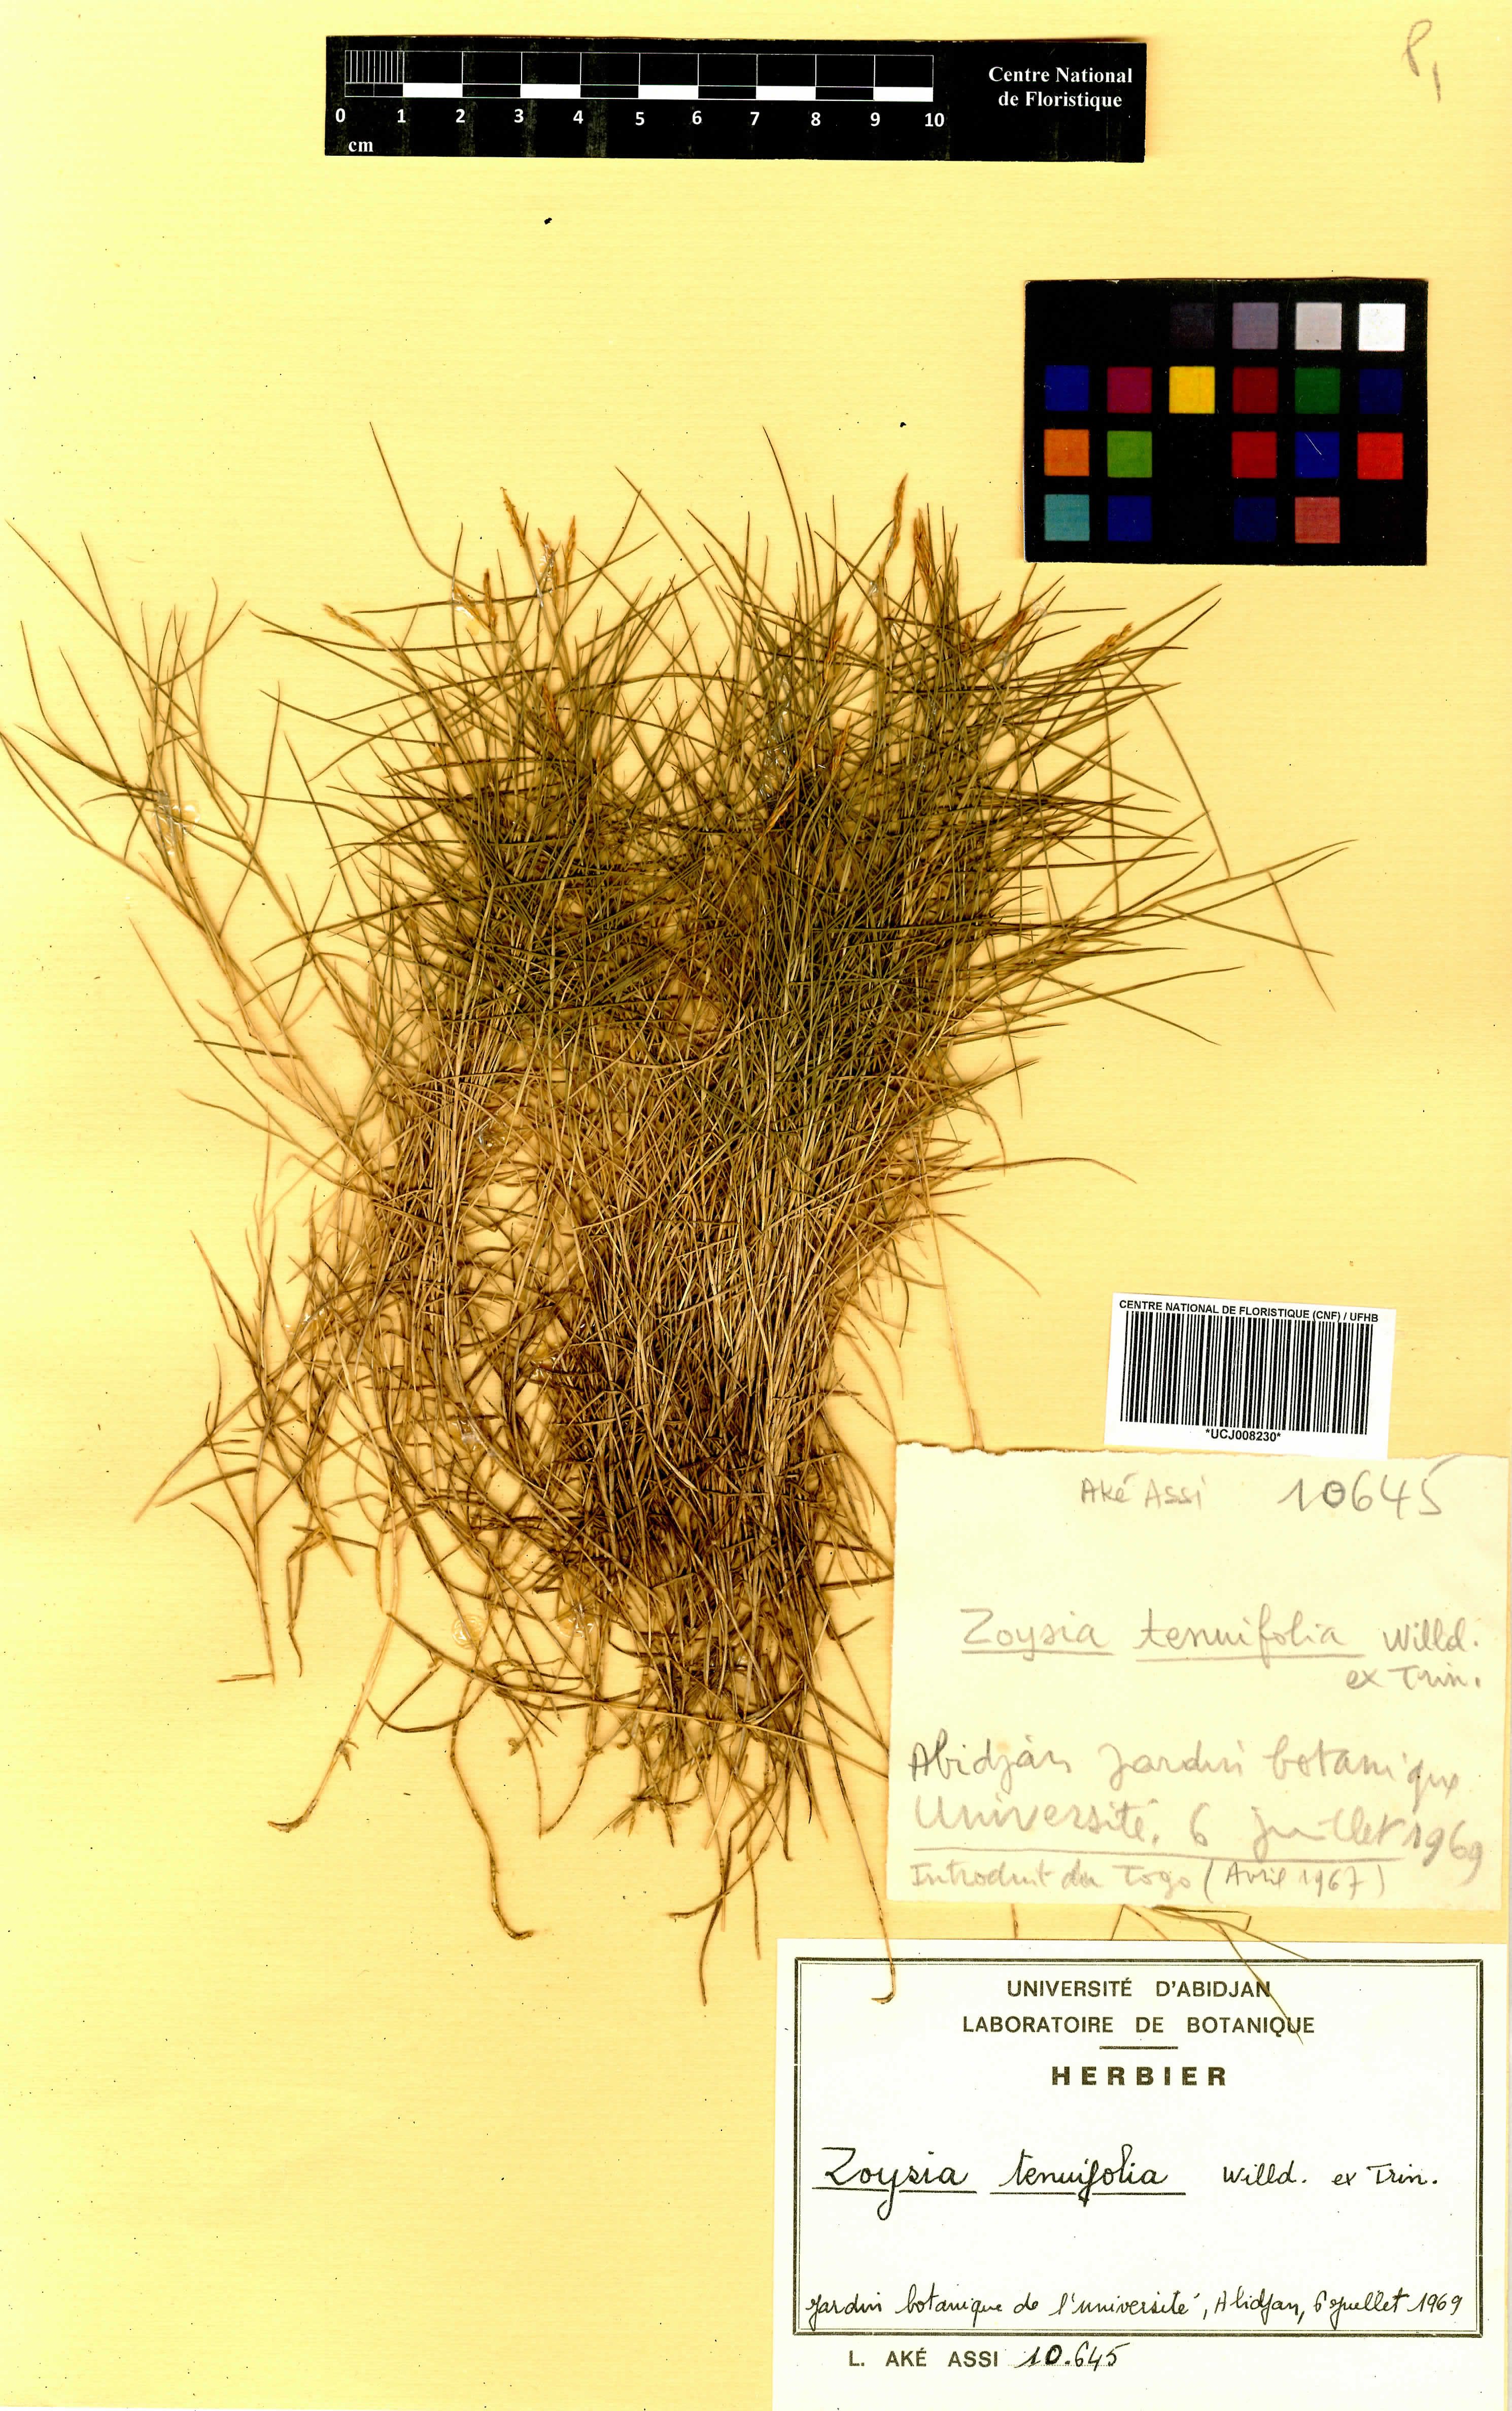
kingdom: Plantae
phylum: Tracheophyta
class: Liliopsida
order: Poales
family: Poaceae
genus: Zoysia
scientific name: Zoysia matrella
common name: Manila grass
